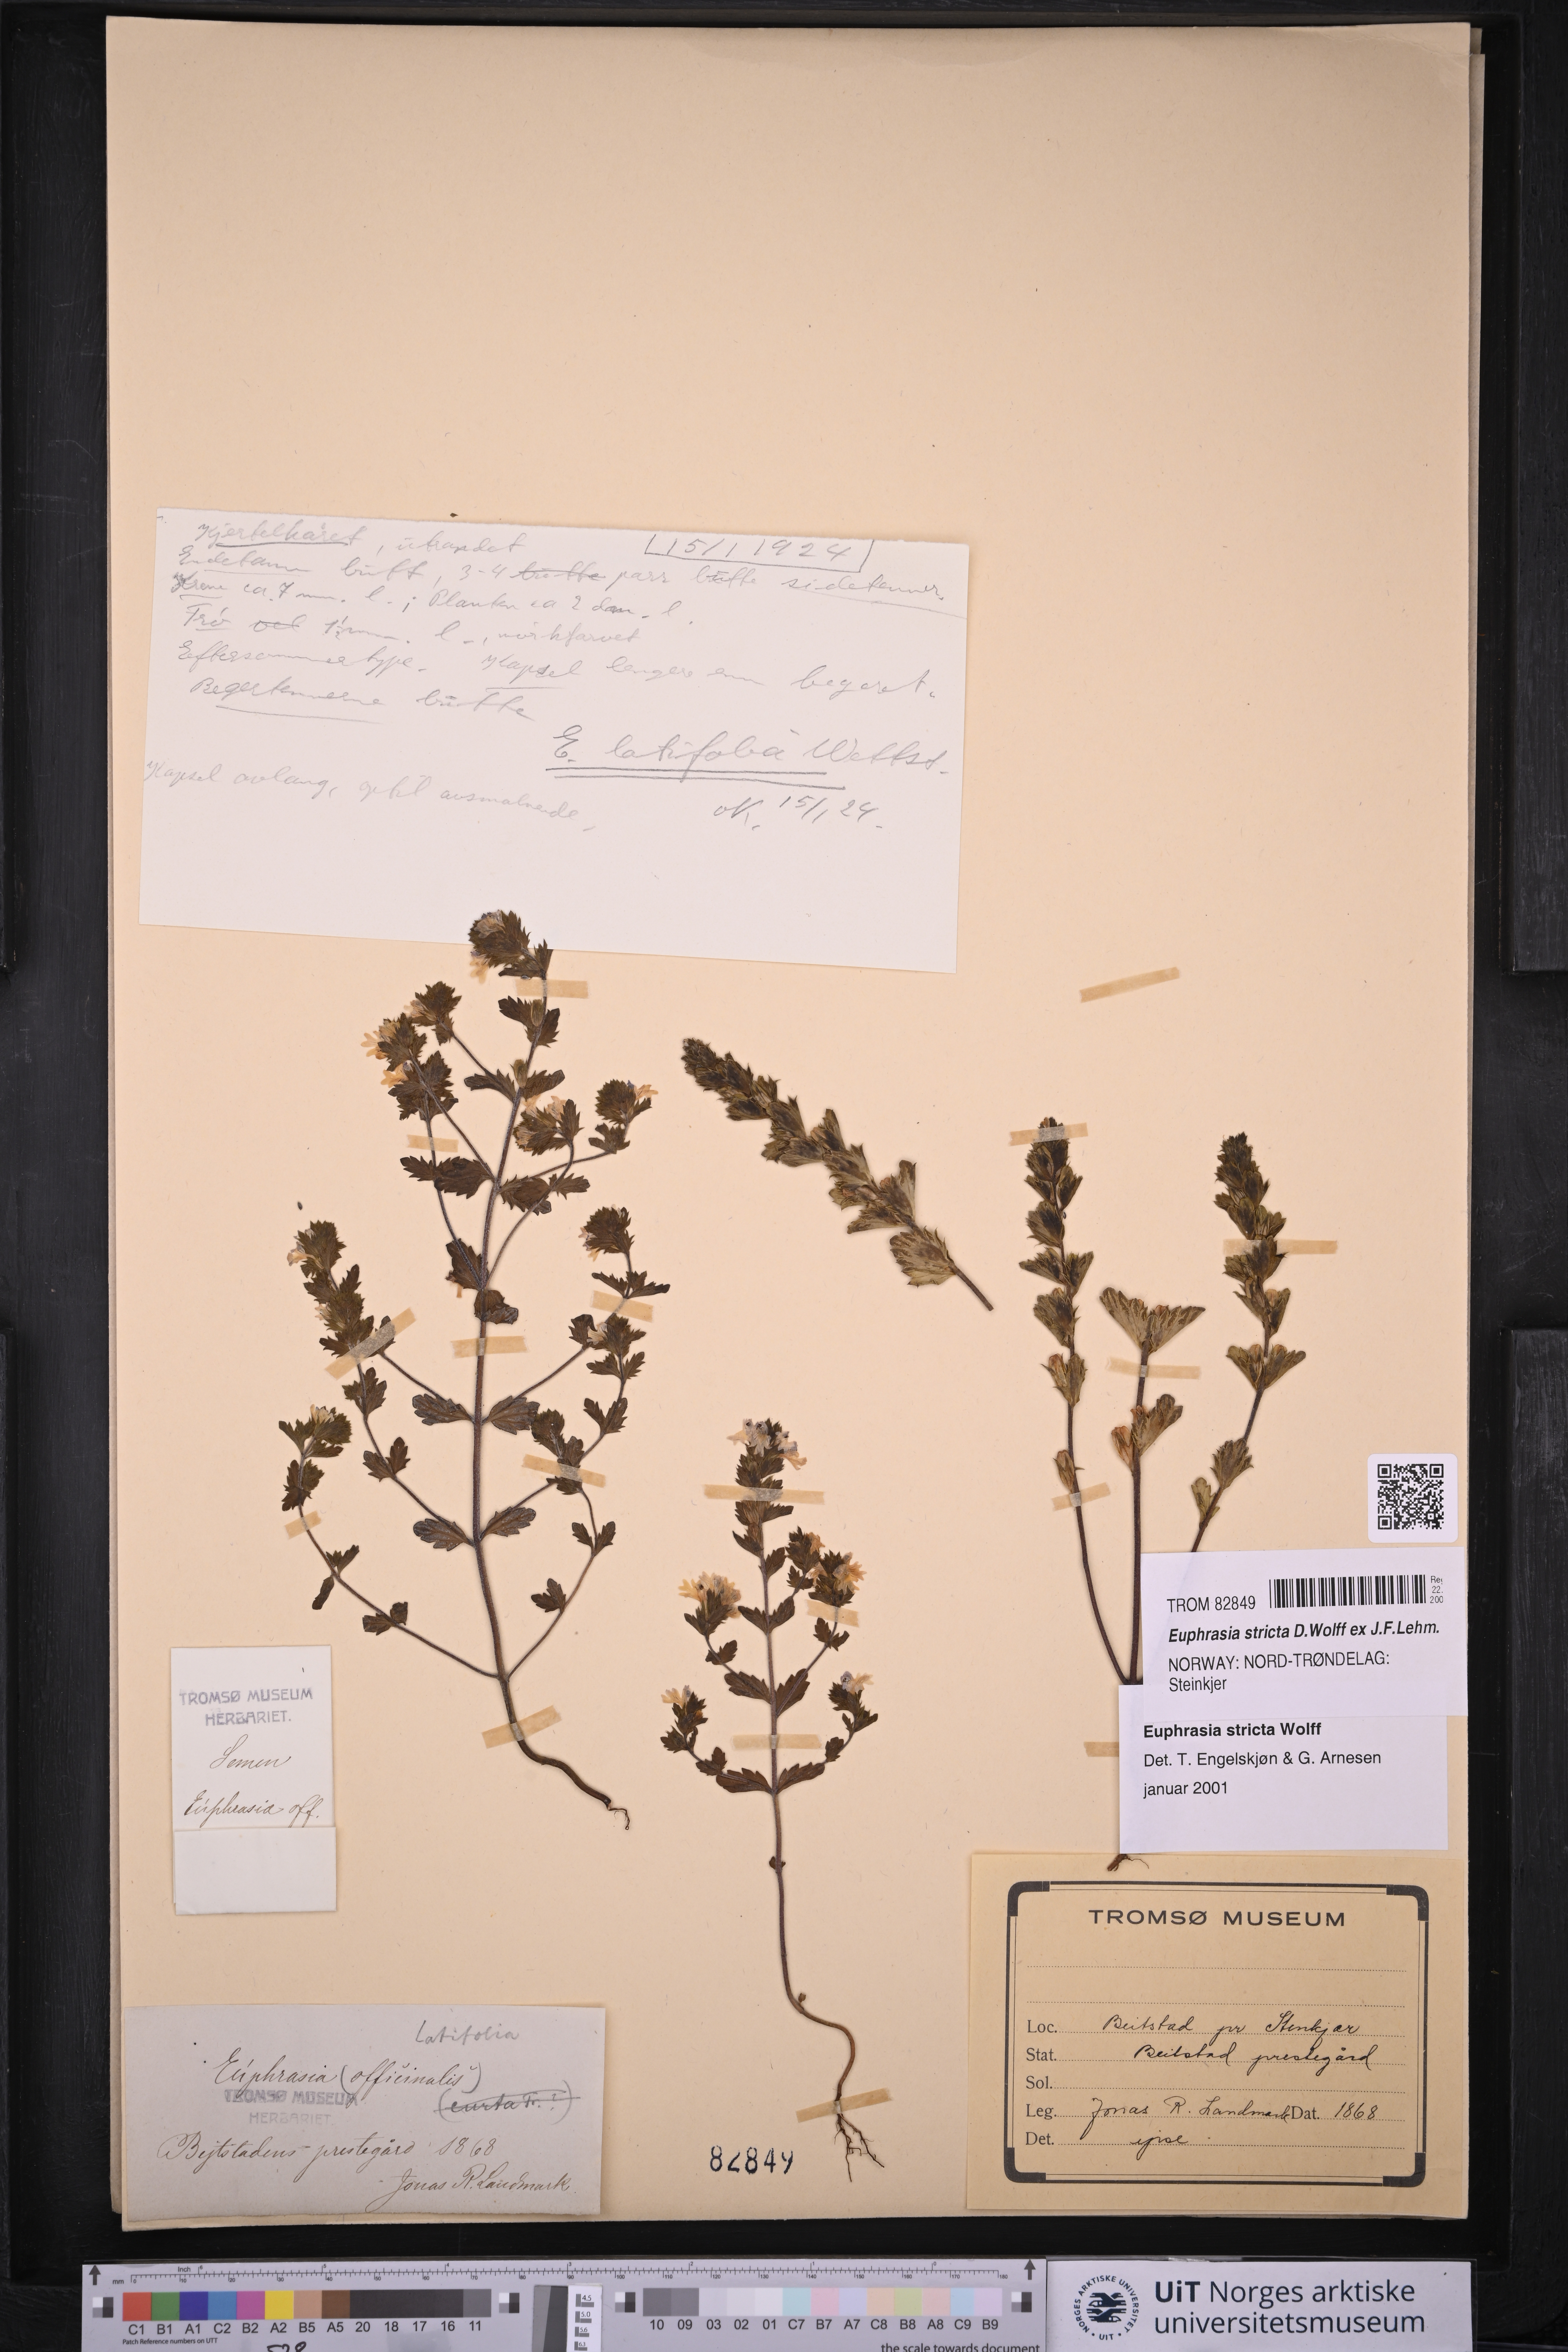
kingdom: Plantae
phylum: Tracheophyta
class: Magnoliopsida
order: Lamiales
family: Orobanchaceae
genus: Euphrasia
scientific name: Euphrasia stricta
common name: Drug eyebright
